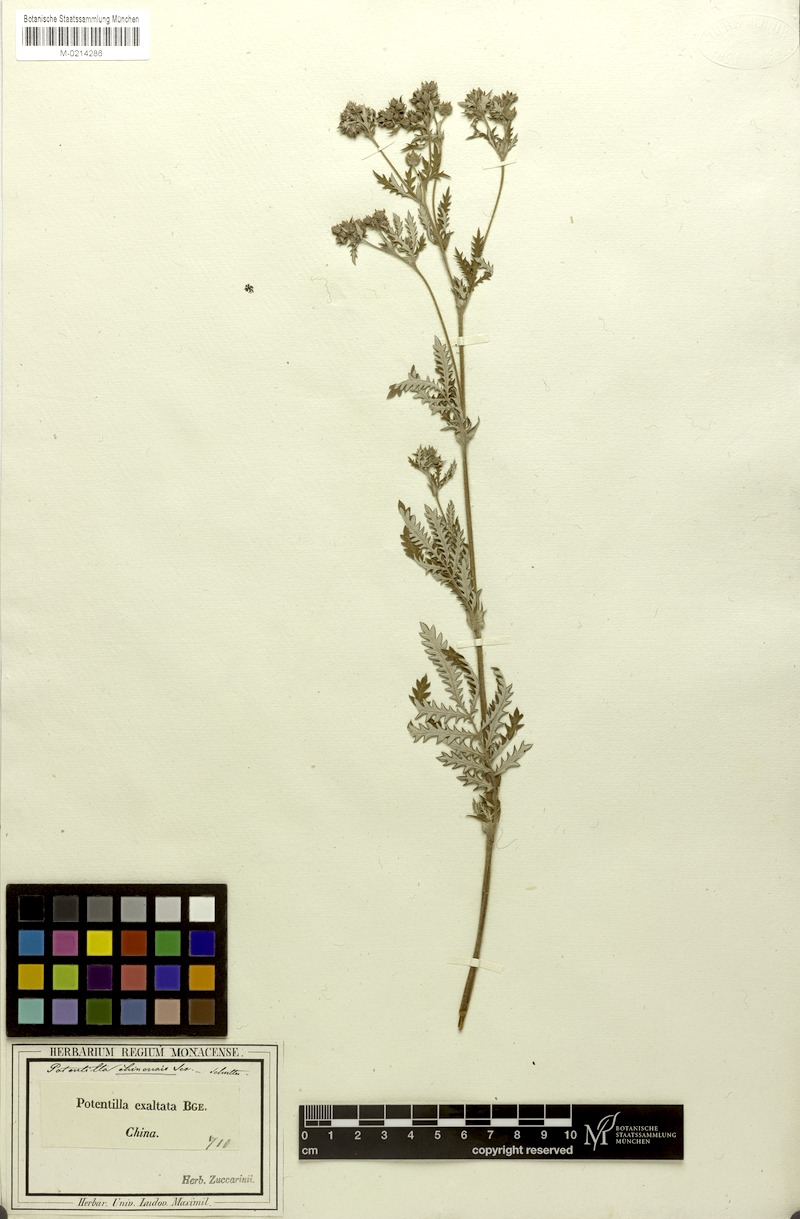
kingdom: Plantae
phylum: Tracheophyta
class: Magnoliopsida
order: Rosales
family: Rosaceae
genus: Potentilla
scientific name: Potentilla chinensis
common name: Chinese cinquefoil
